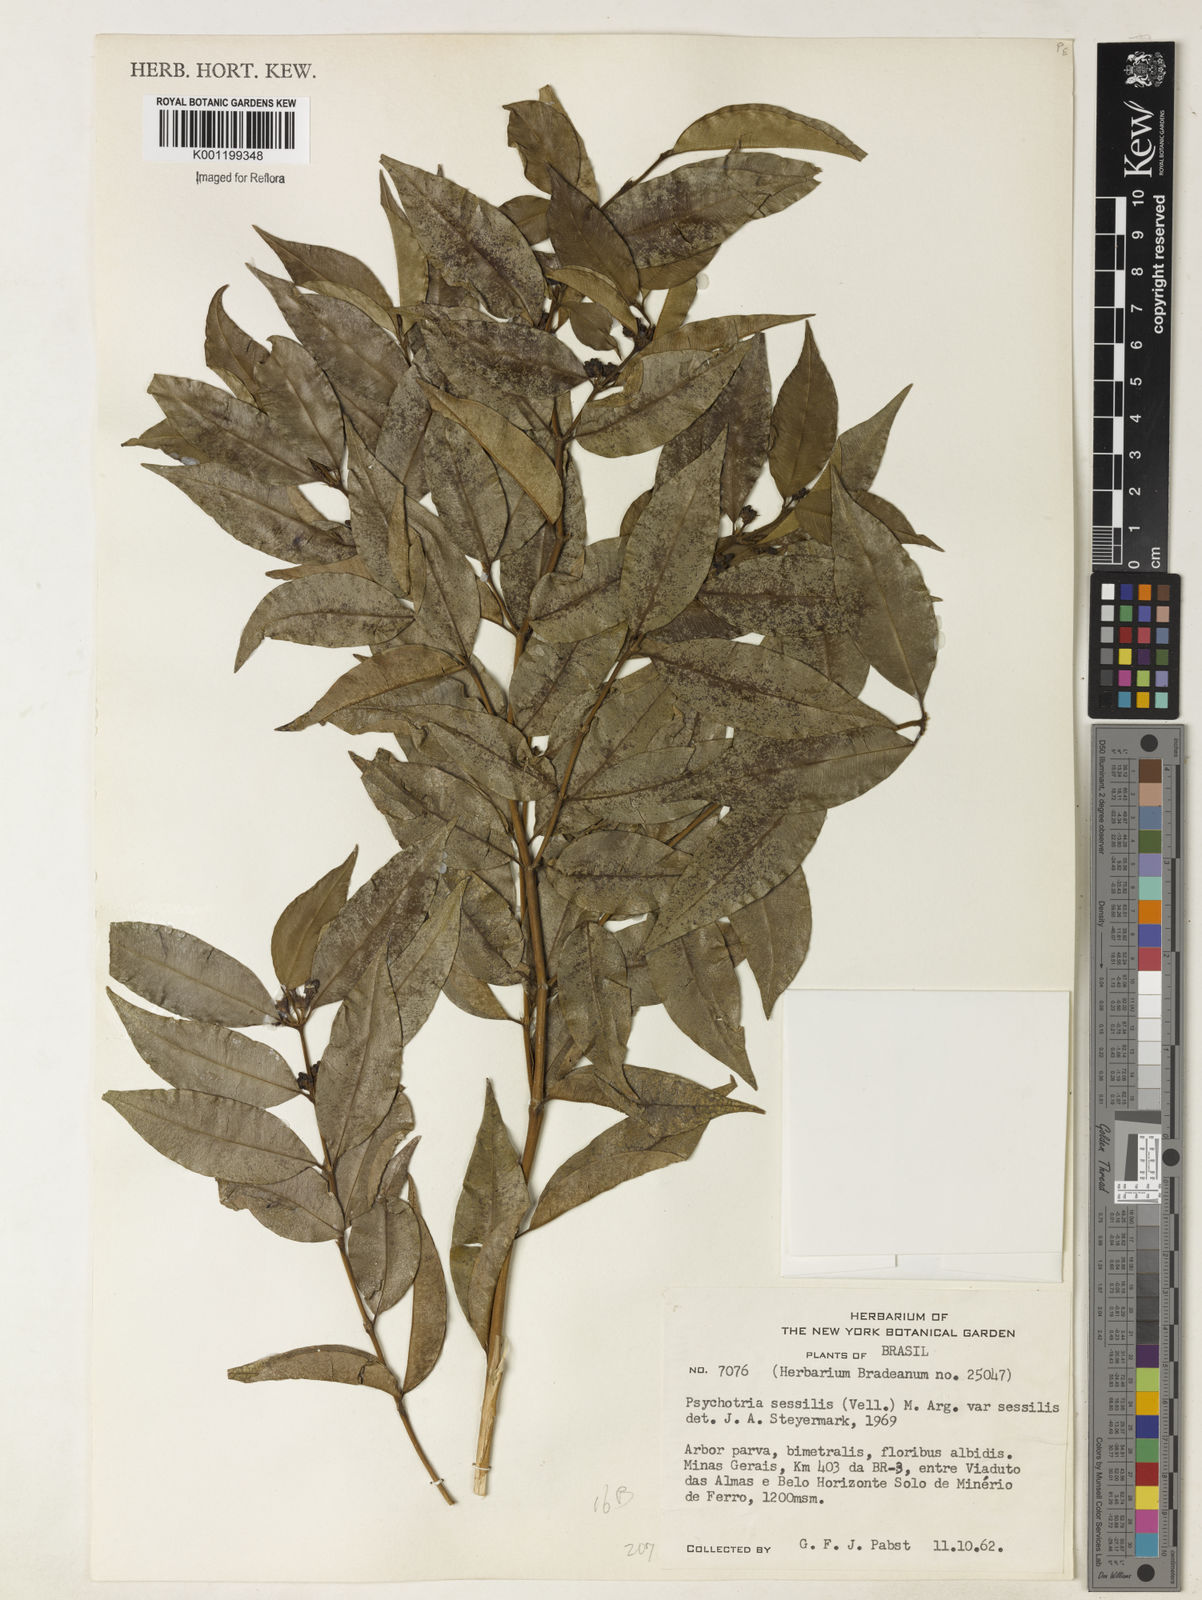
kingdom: Plantae
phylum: Tracheophyta
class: Magnoliopsida
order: Gentianales
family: Rubiaceae
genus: Rudgea
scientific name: Rudgea sessilis
